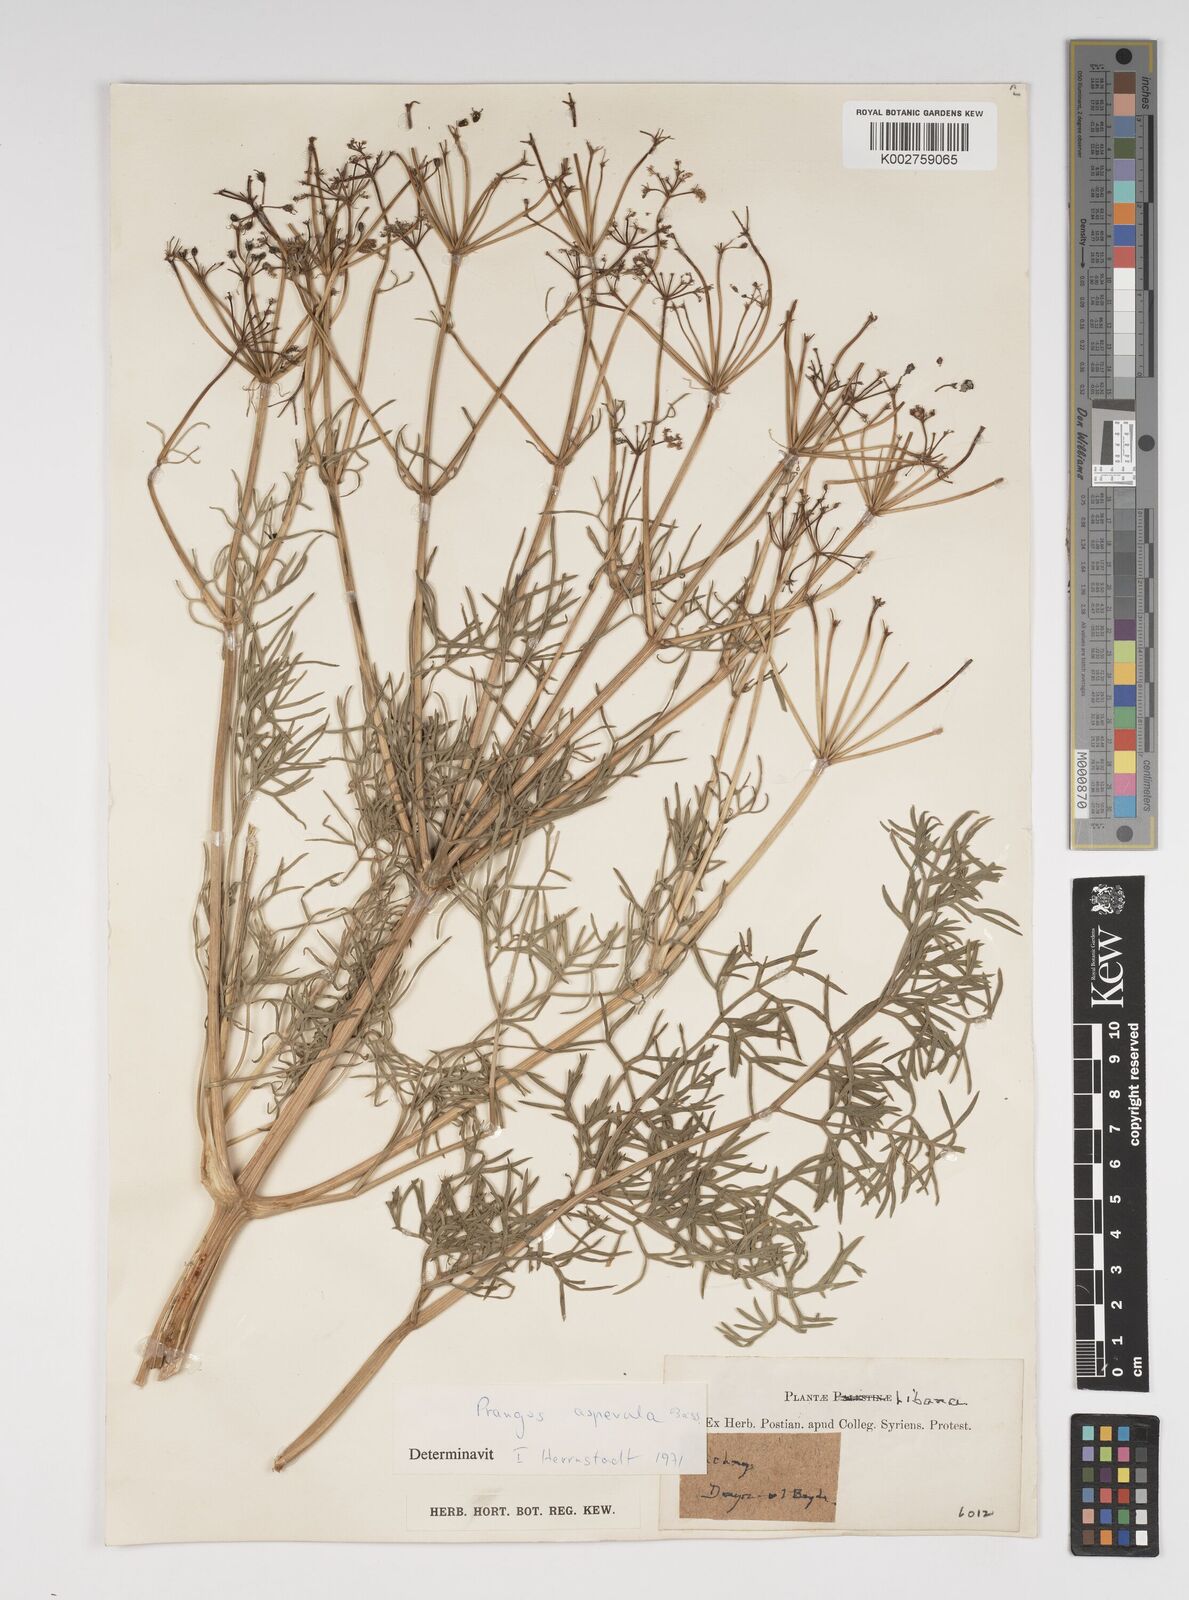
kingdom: Plantae
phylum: Tracheophyta
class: Magnoliopsida
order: Apiales
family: Apiaceae
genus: Prangos
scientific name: Prangos asperula
